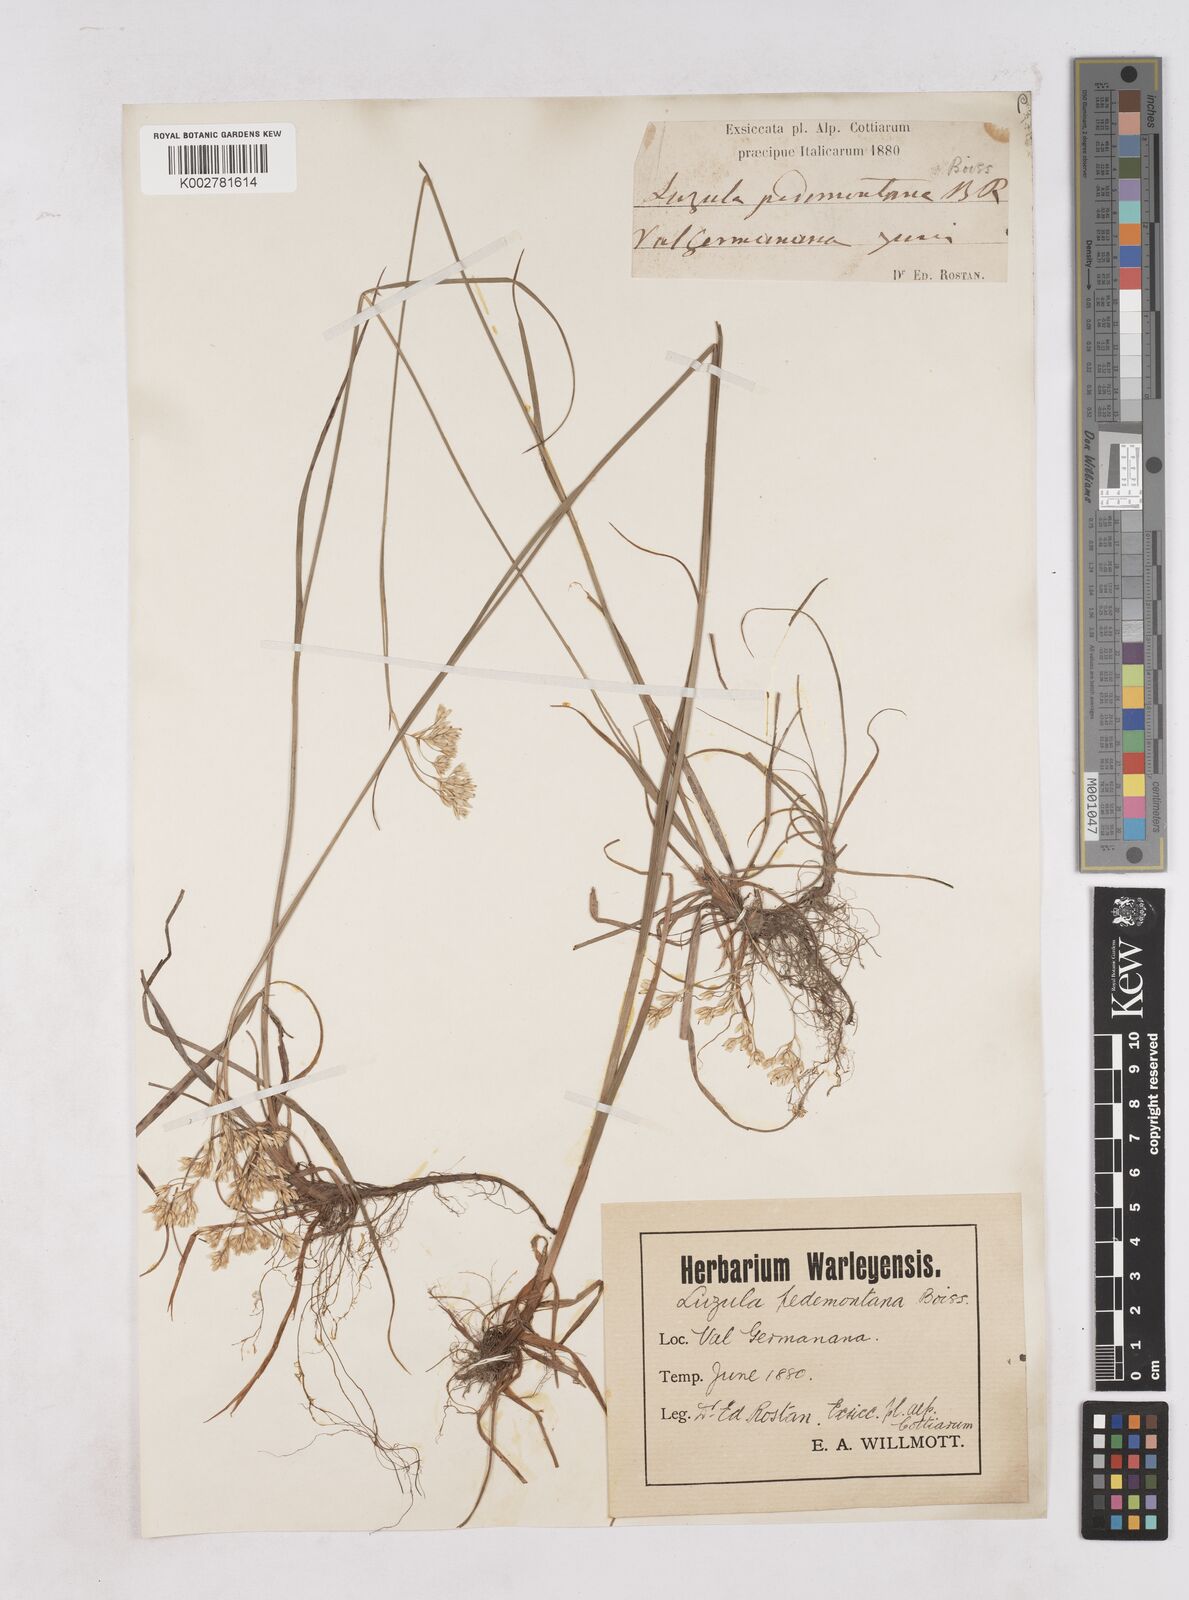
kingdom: Plantae
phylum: Tracheophyta
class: Liliopsida
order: Poales
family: Juncaceae
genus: Luzula
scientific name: Luzula pedemontana
